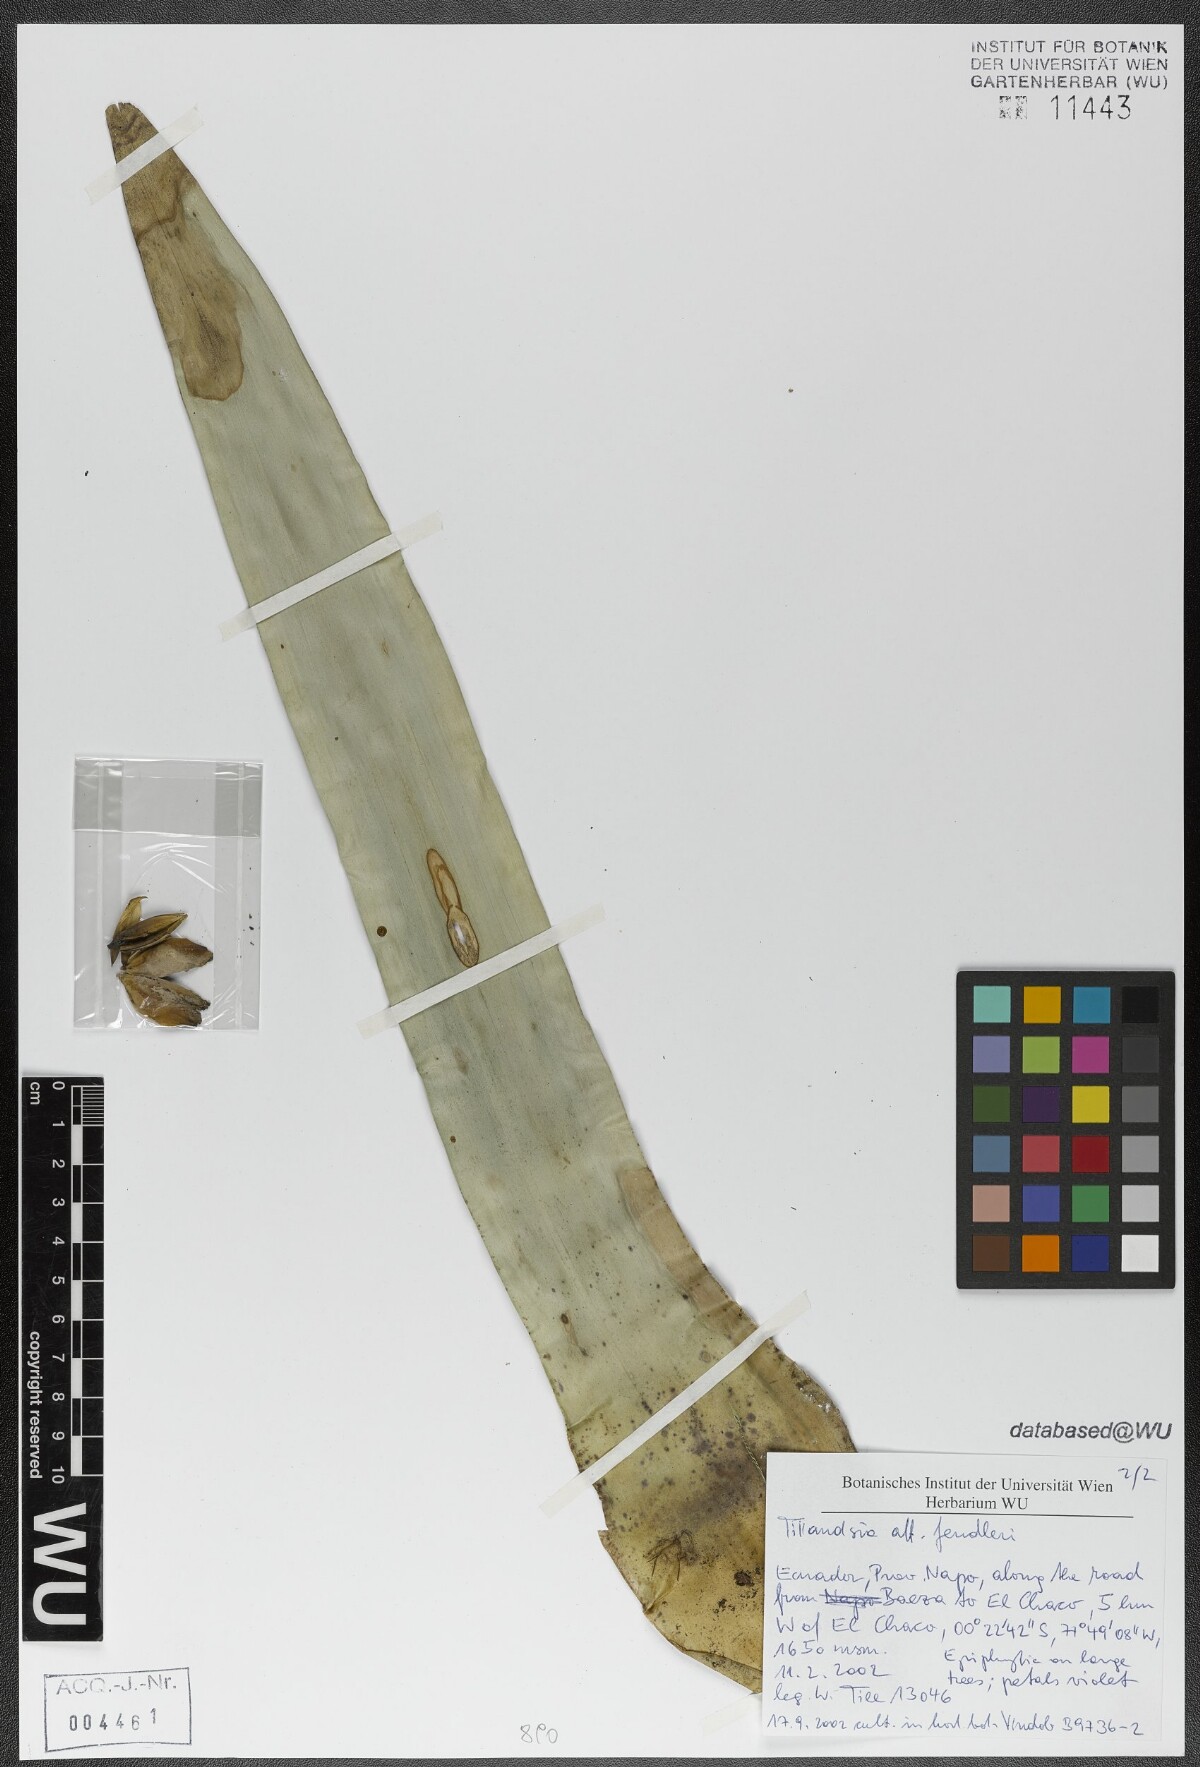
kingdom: Plantae
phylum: Tracheophyta
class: Liliopsida
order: Poales
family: Bromeliaceae
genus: Tillandsia
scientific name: Tillandsia fendleri
